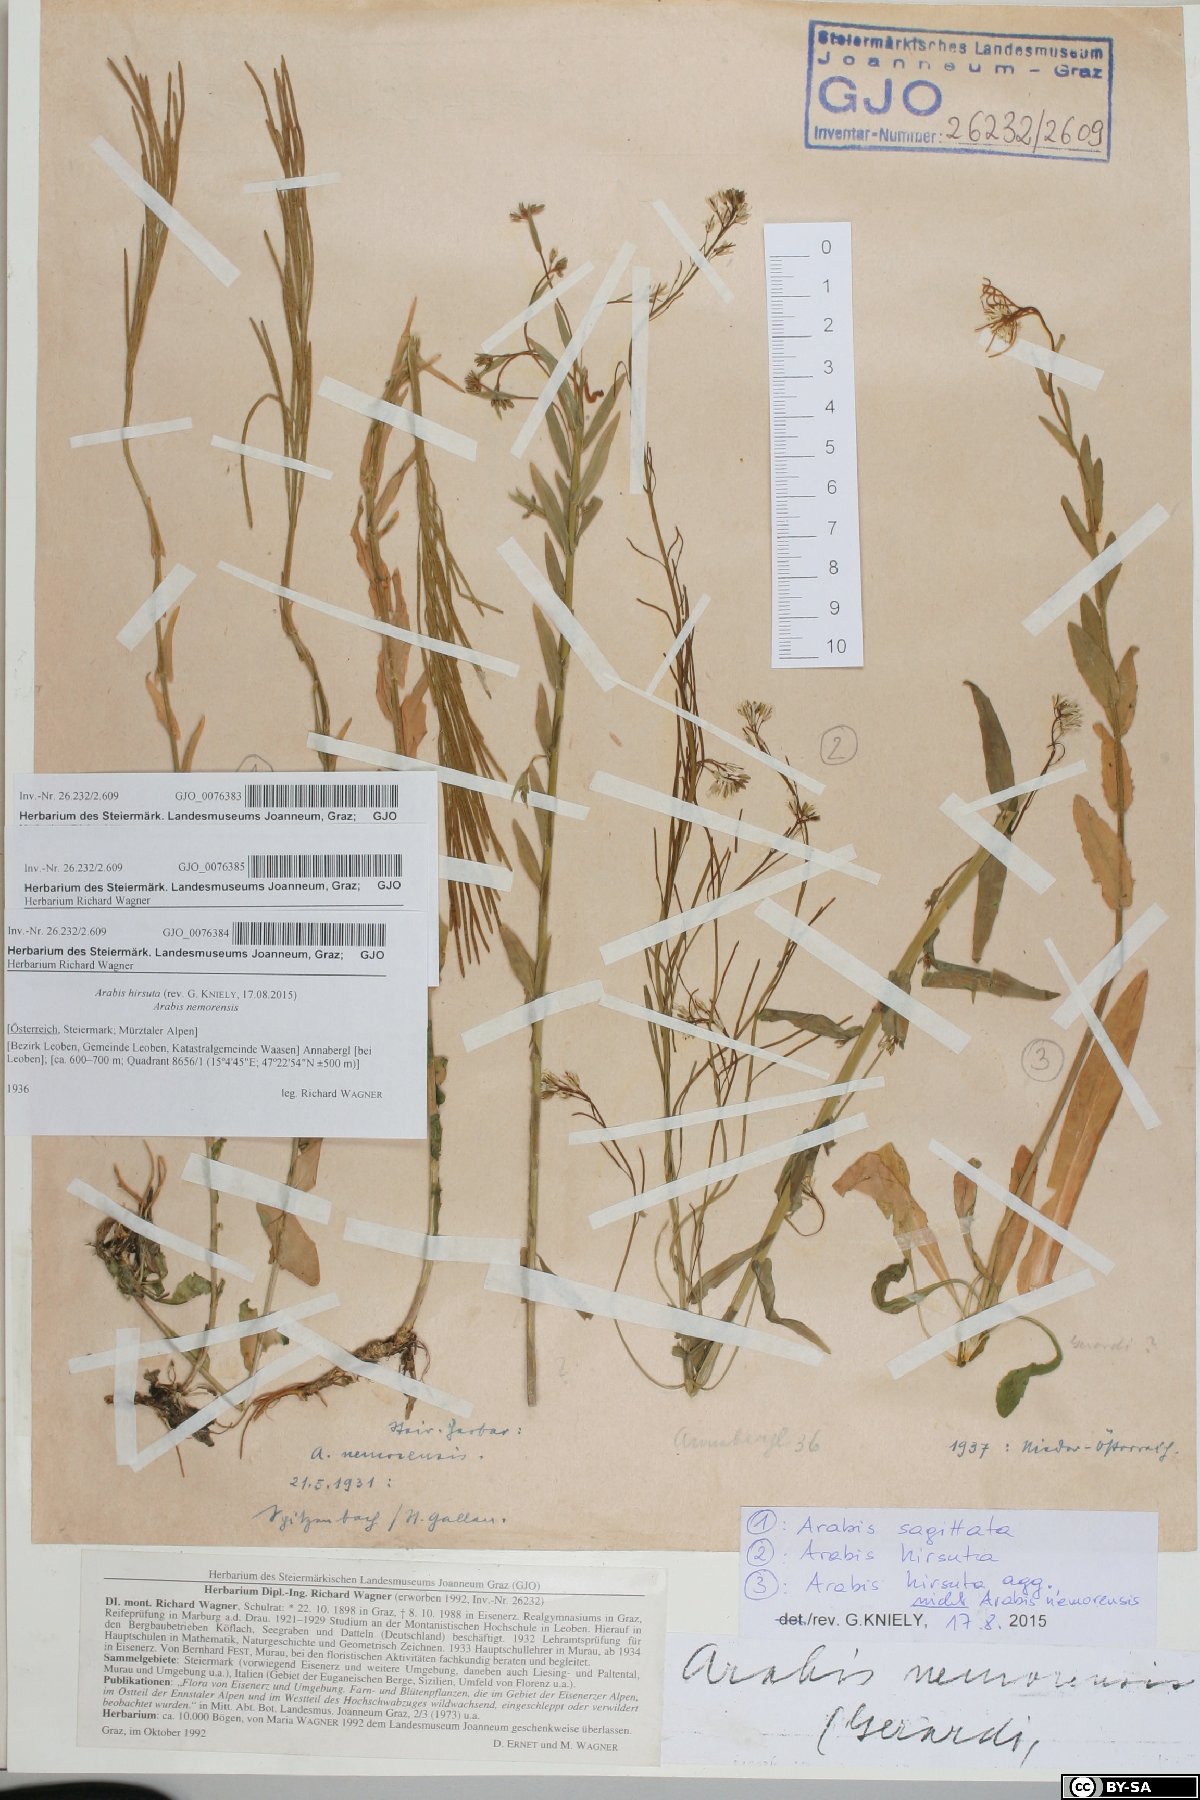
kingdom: Plantae
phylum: Tracheophyta
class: Magnoliopsida
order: Brassicales
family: Brassicaceae
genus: Arabis
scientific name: Arabis hirsuta
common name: Hairy rock-cress
